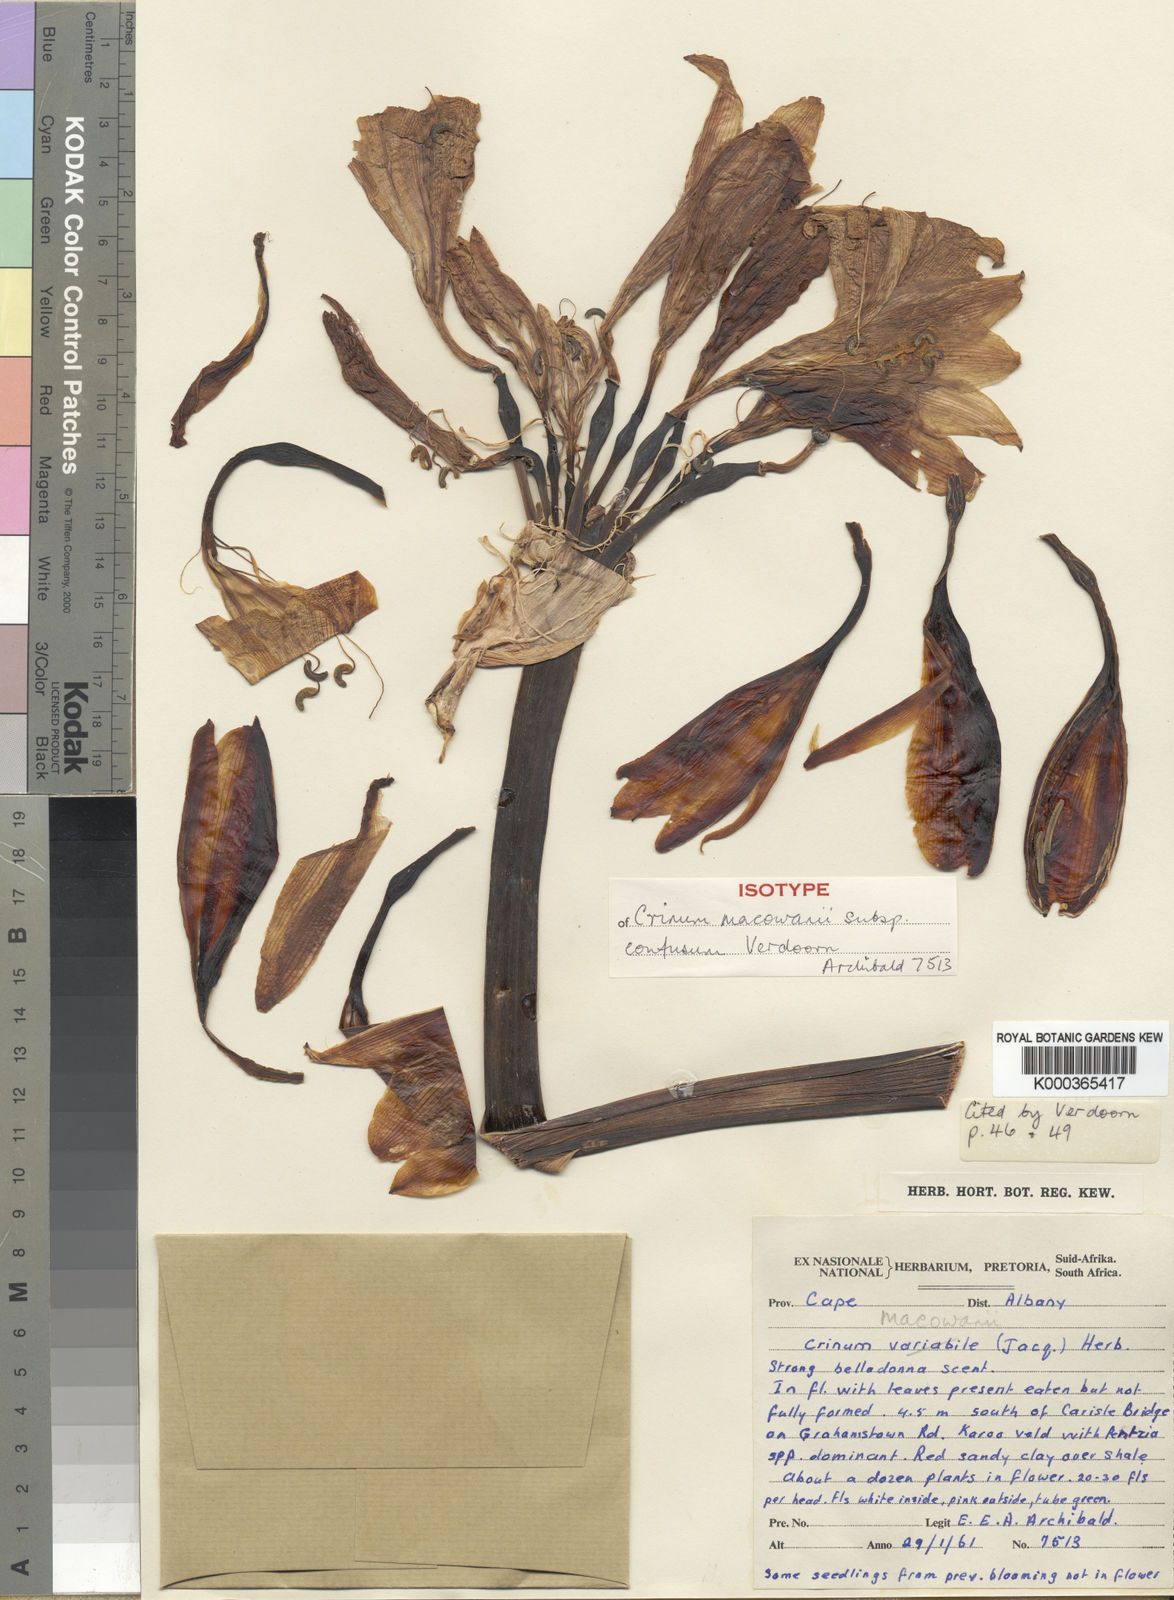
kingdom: Plantae
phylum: Tracheophyta
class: Liliopsida
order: Asparagales
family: Amaryllidaceae
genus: Crinum
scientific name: Crinum macowanii
